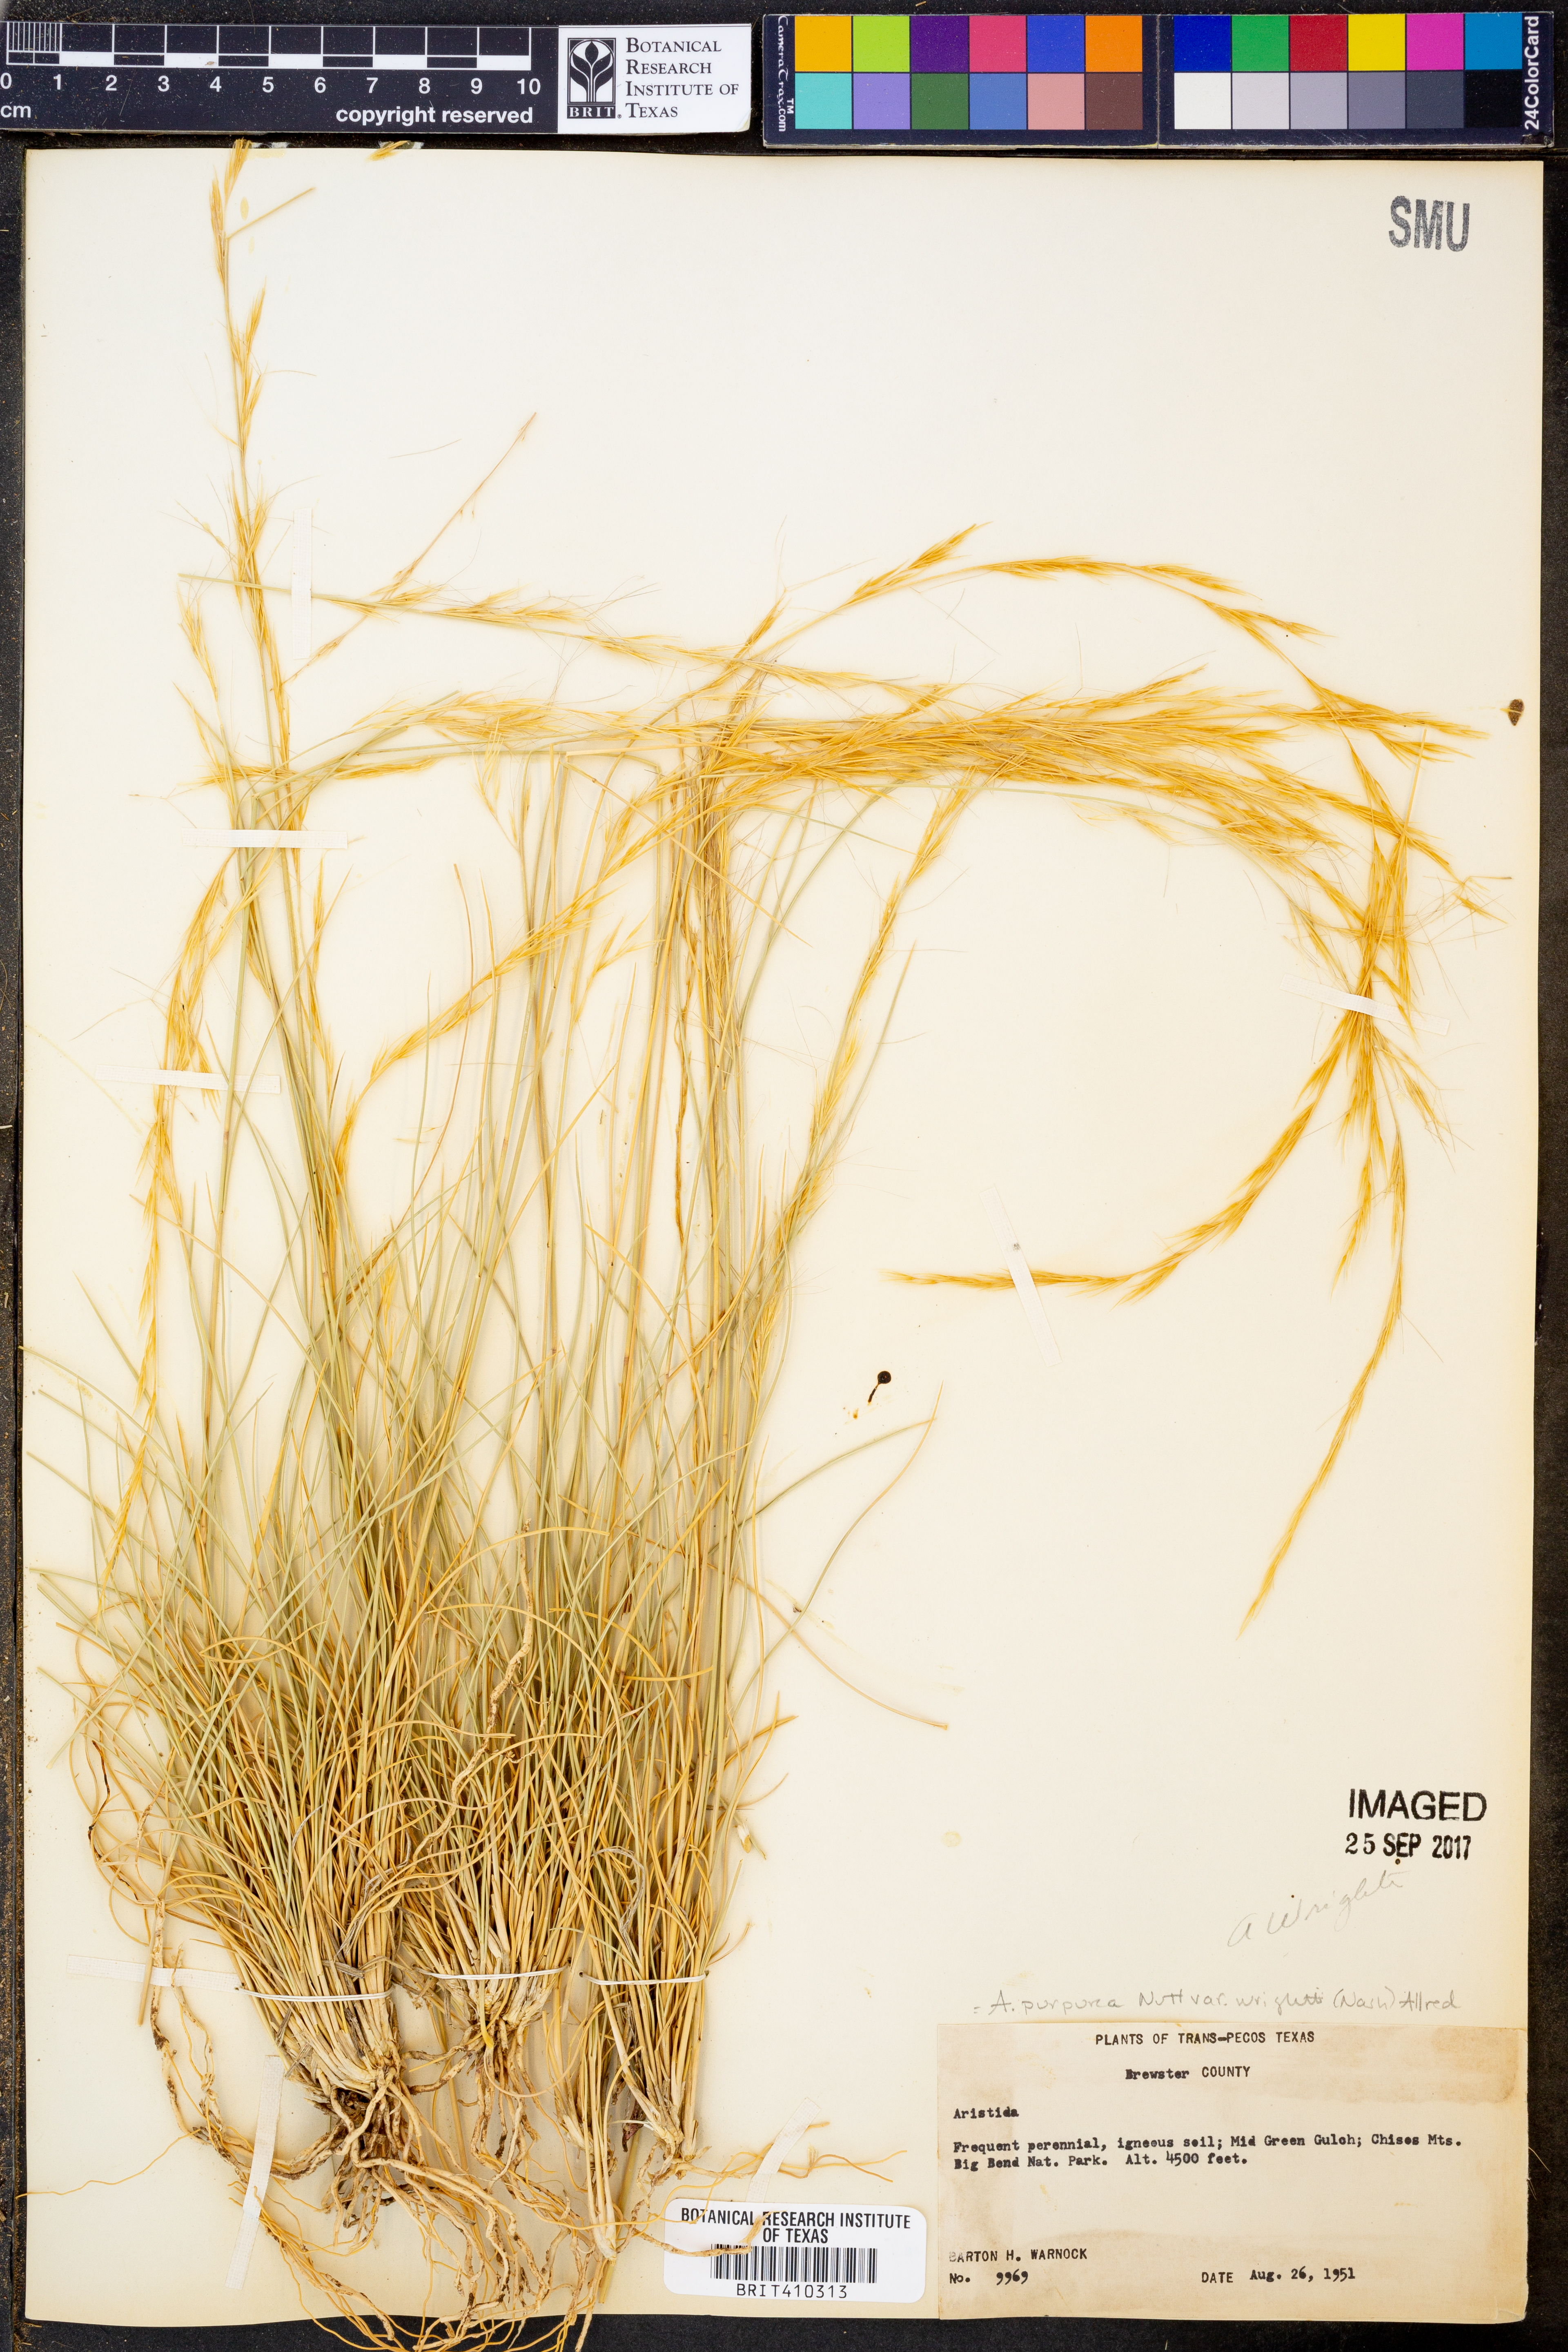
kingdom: Plantae
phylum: Tracheophyta
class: Liliopsida
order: Poales
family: Poaceae
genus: Aristida
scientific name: Aristida wrightii
